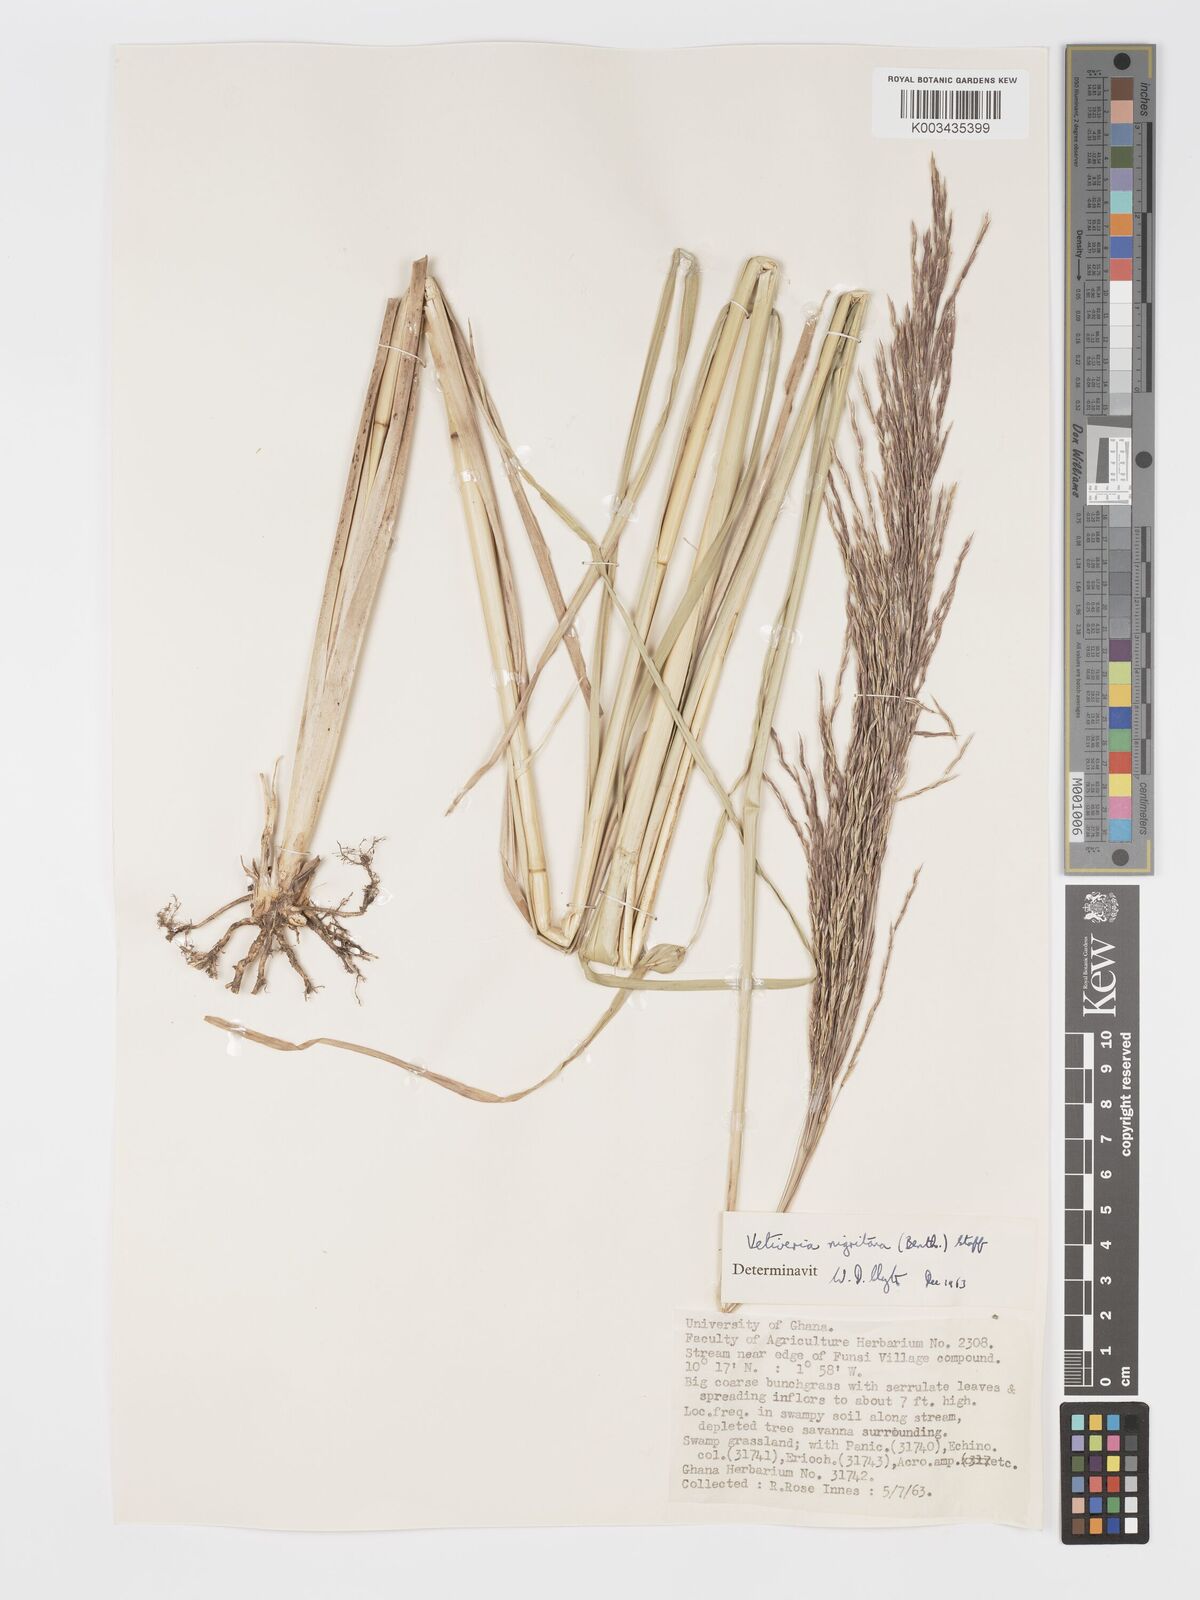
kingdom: Plantae
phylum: Tracheophyta
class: Liliopsida
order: Poales
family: Poaceae
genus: Chrysopogon
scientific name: Chrysopogon nigritanus
